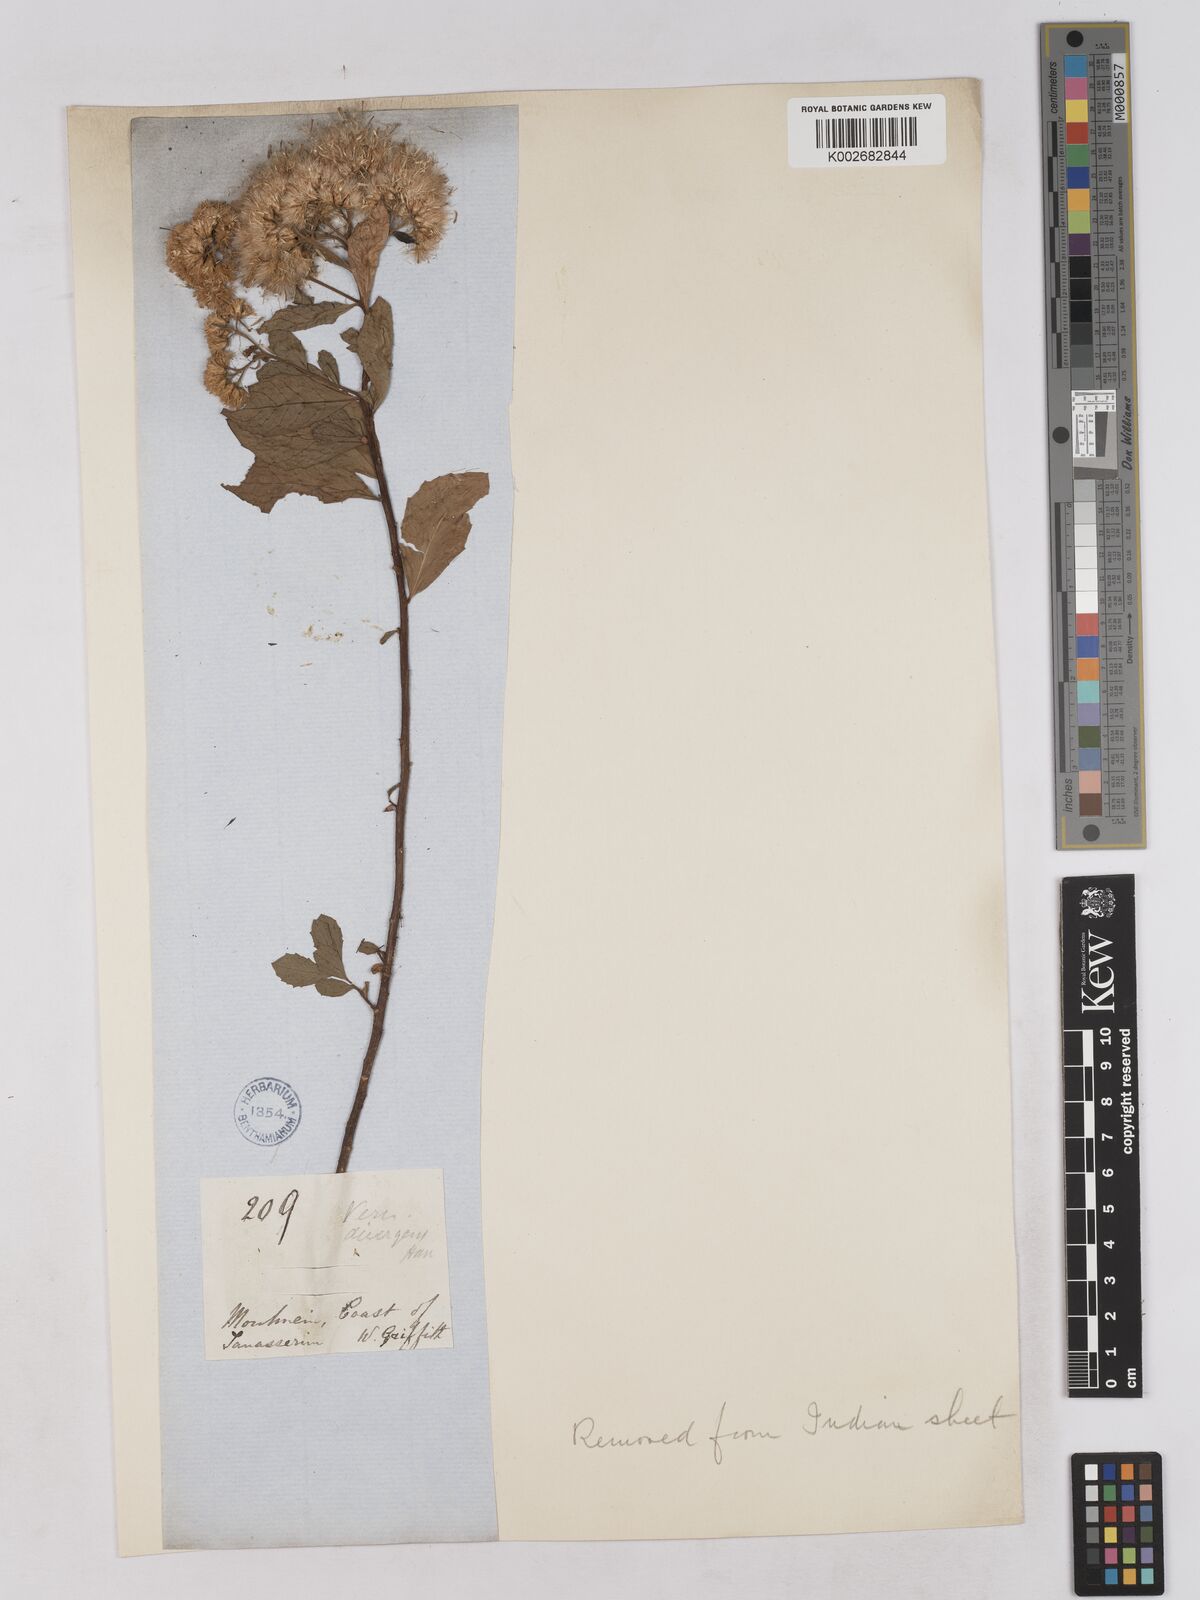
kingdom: Plantae
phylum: Tracheophyta
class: Magnoliopsida
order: Asterales
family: Asteraceae
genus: Acilepis
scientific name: Acilepis divergens
